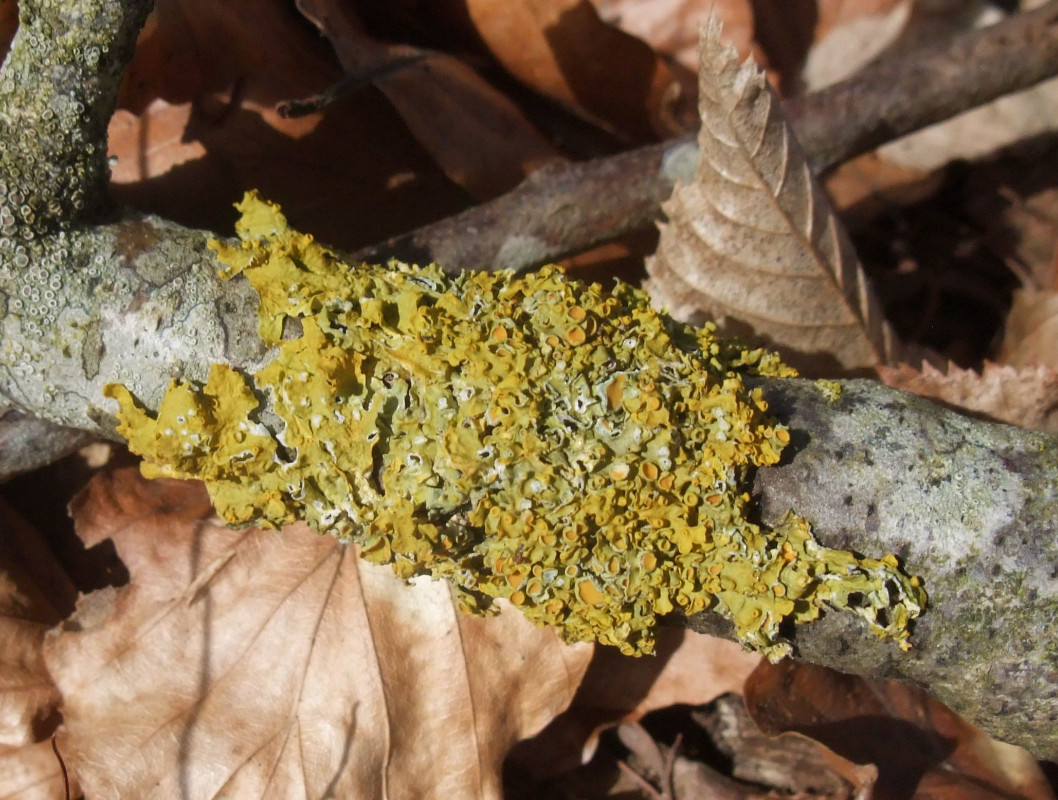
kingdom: Fungi
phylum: Ascomycota
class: Lecanoromycetes
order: Teloschistales
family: Teloschistaceae
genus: Xanthoria
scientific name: Xanthoria parietina
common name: almindelig væggelav
